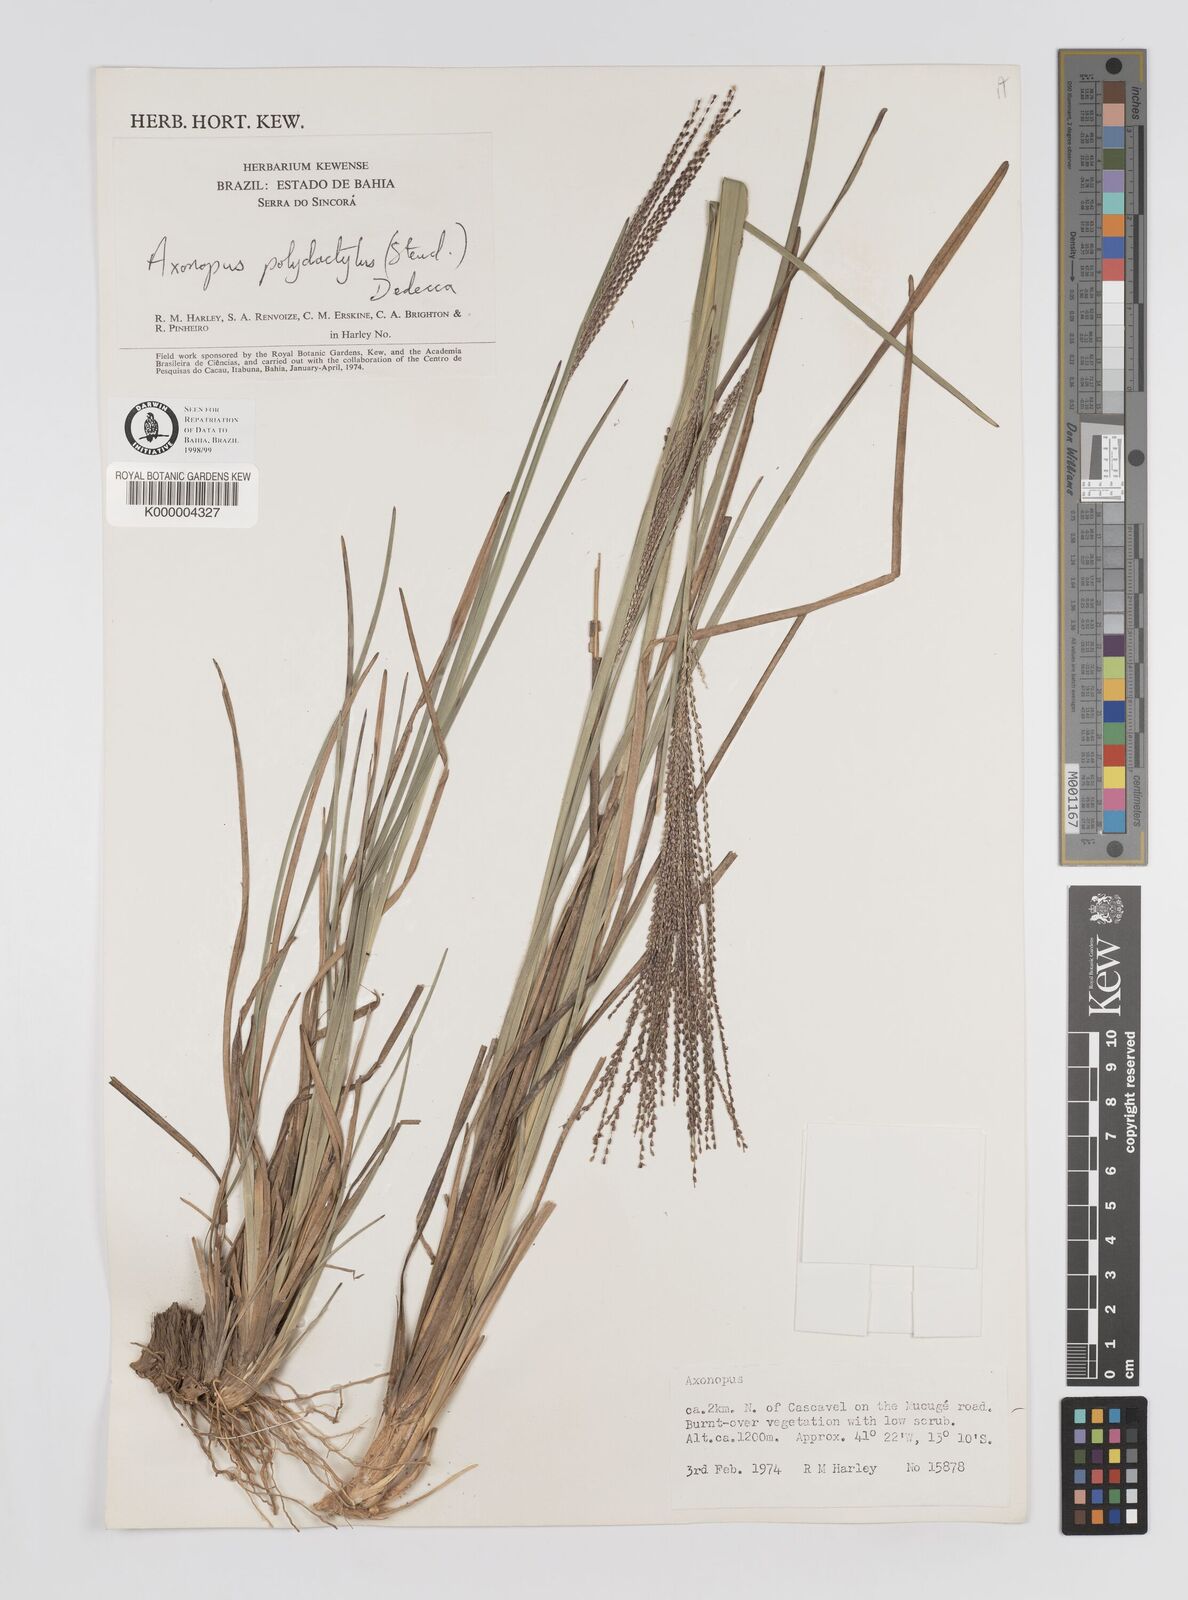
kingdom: Plantae
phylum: Tracheophyta
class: Liliopsida
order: Poales
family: Poaceae
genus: Axonopus
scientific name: Axonopus polydactylus
